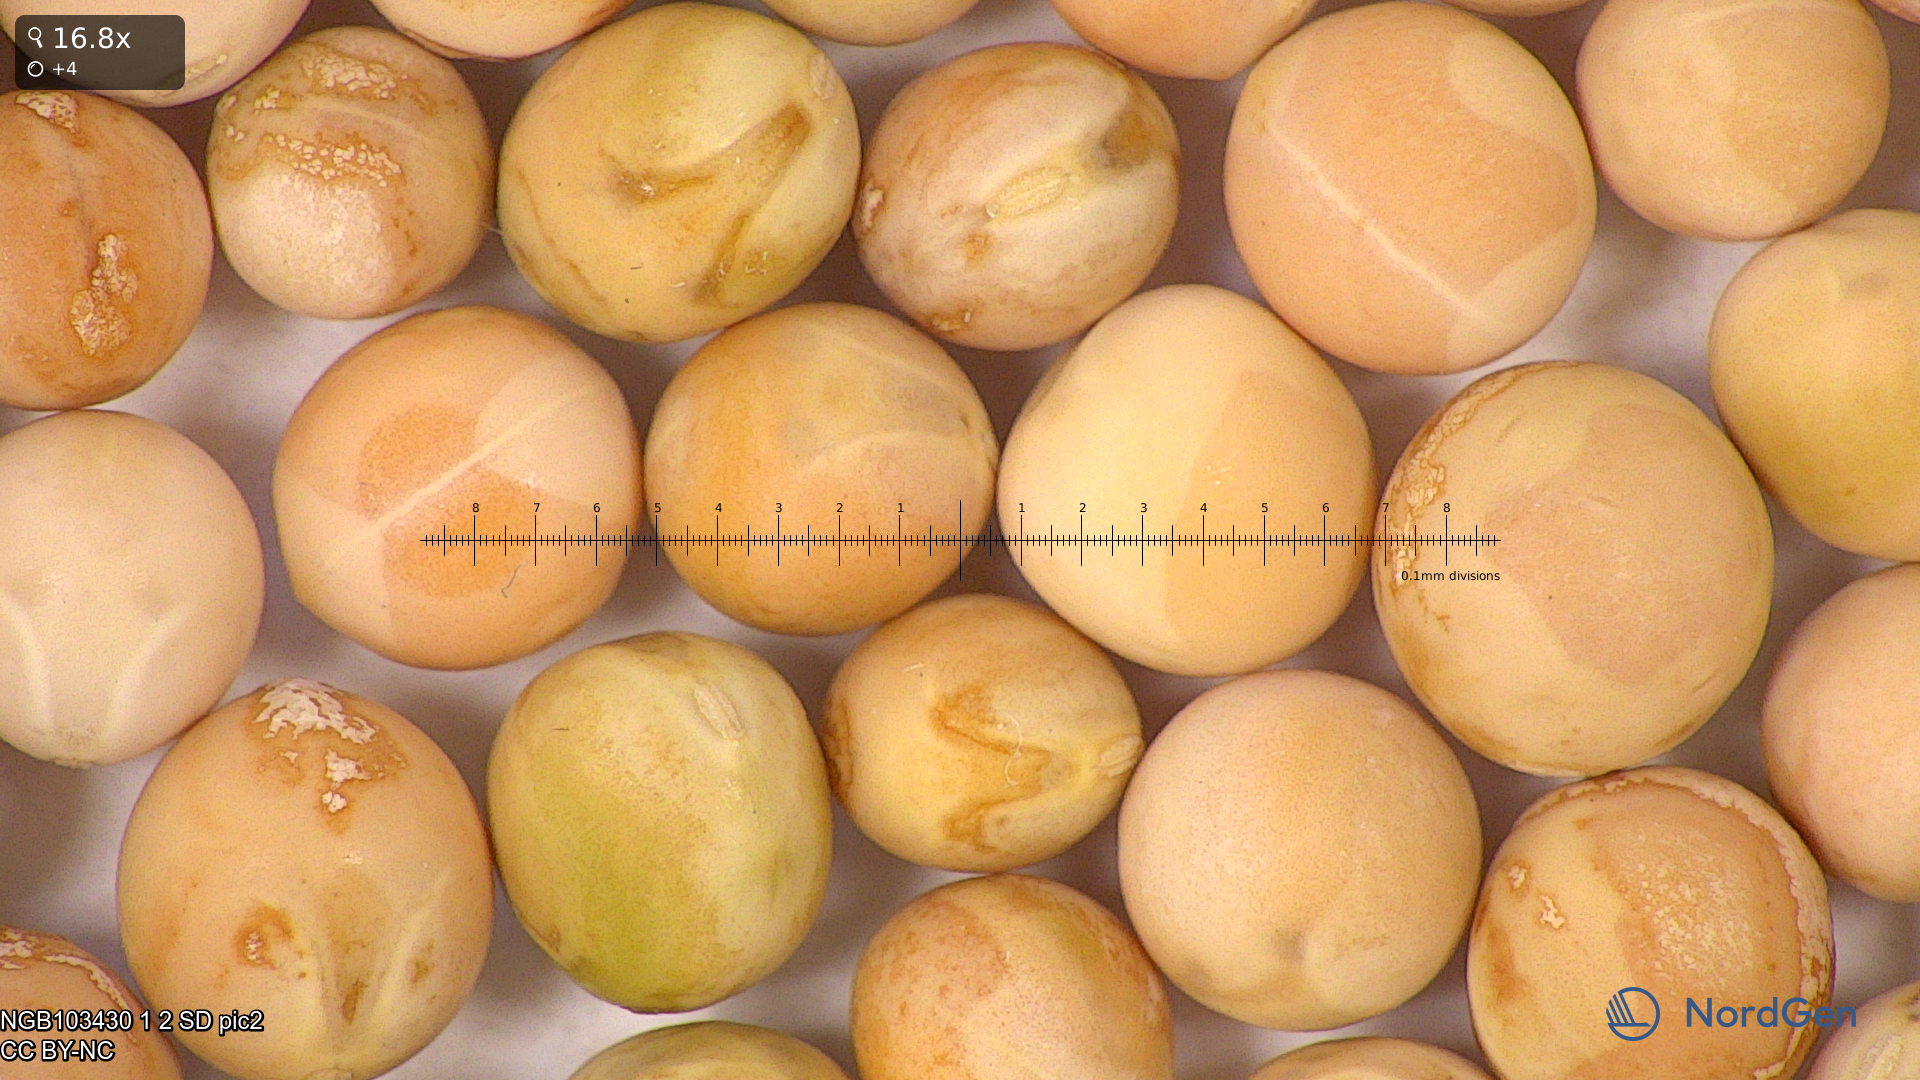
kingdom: Plantae
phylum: Tracheophyta
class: Magnoliopsida
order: Fabales
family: Fabaceae
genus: Lathyrus
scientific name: Lathyrus oleraceus
